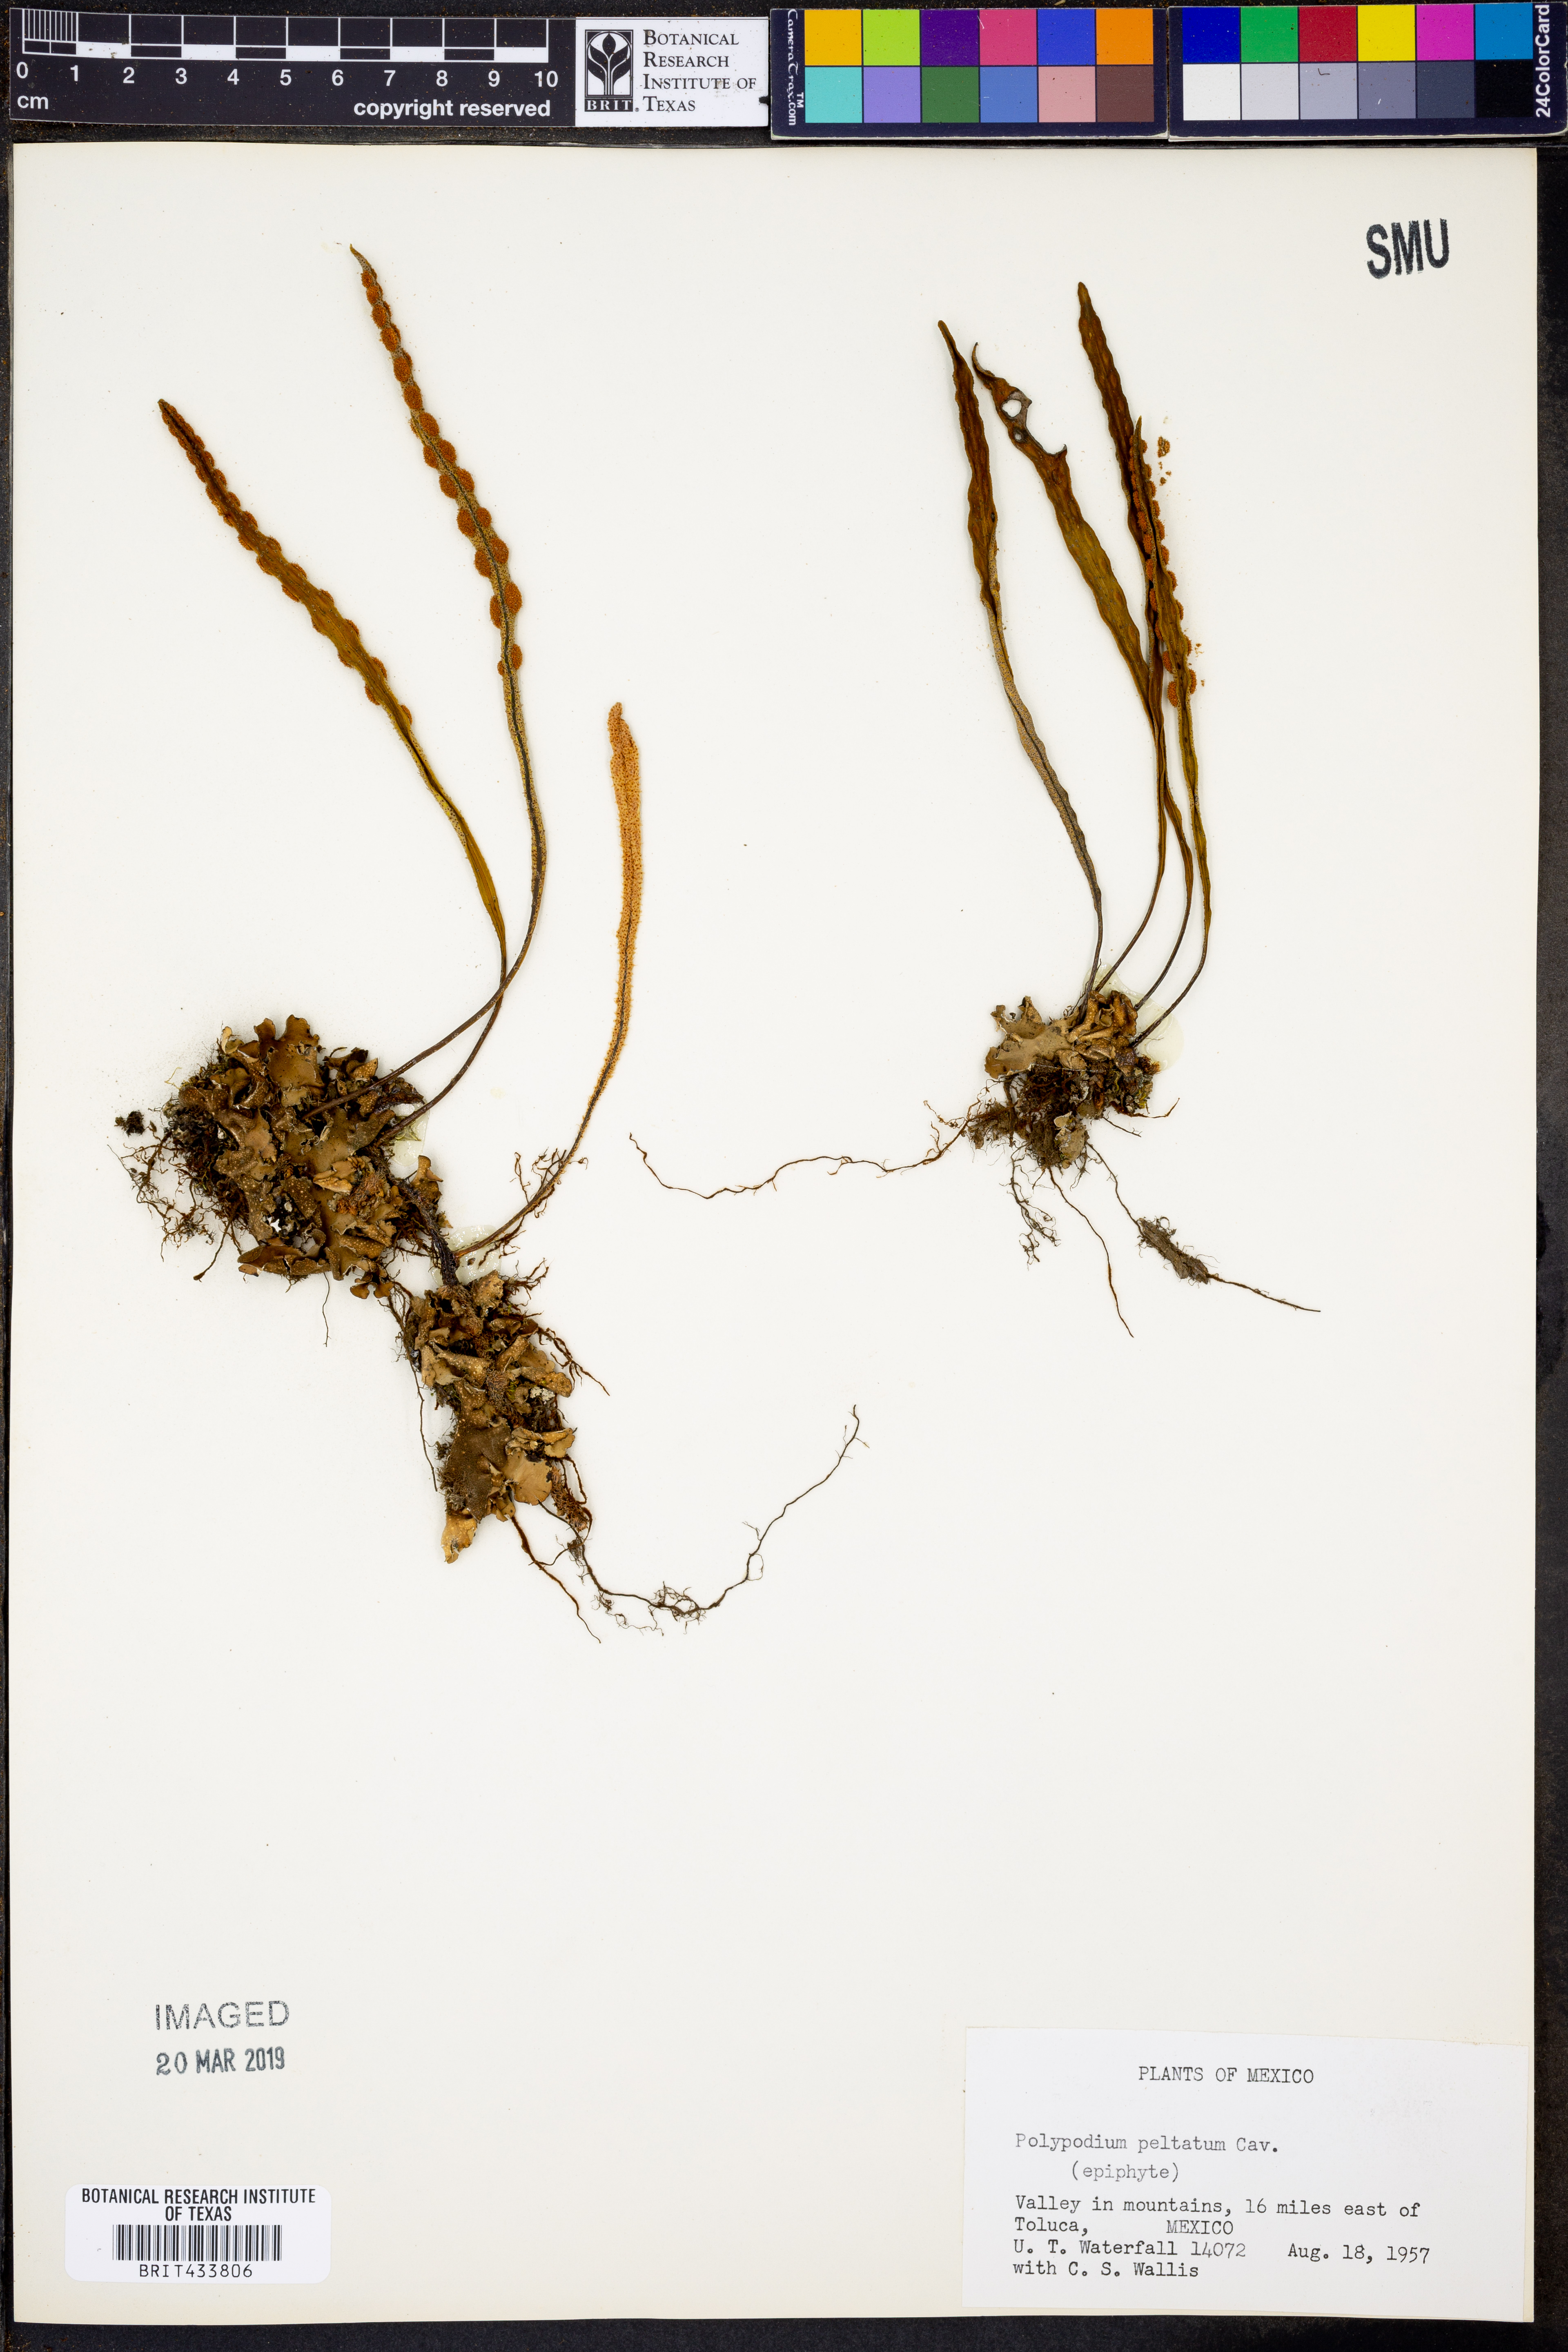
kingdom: Plantae
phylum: Tracheophyta
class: Polypodiopsida
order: Polypodiales
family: Polypodiaceae
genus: Pleopeltis
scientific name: Pleopeltis astrolepis
